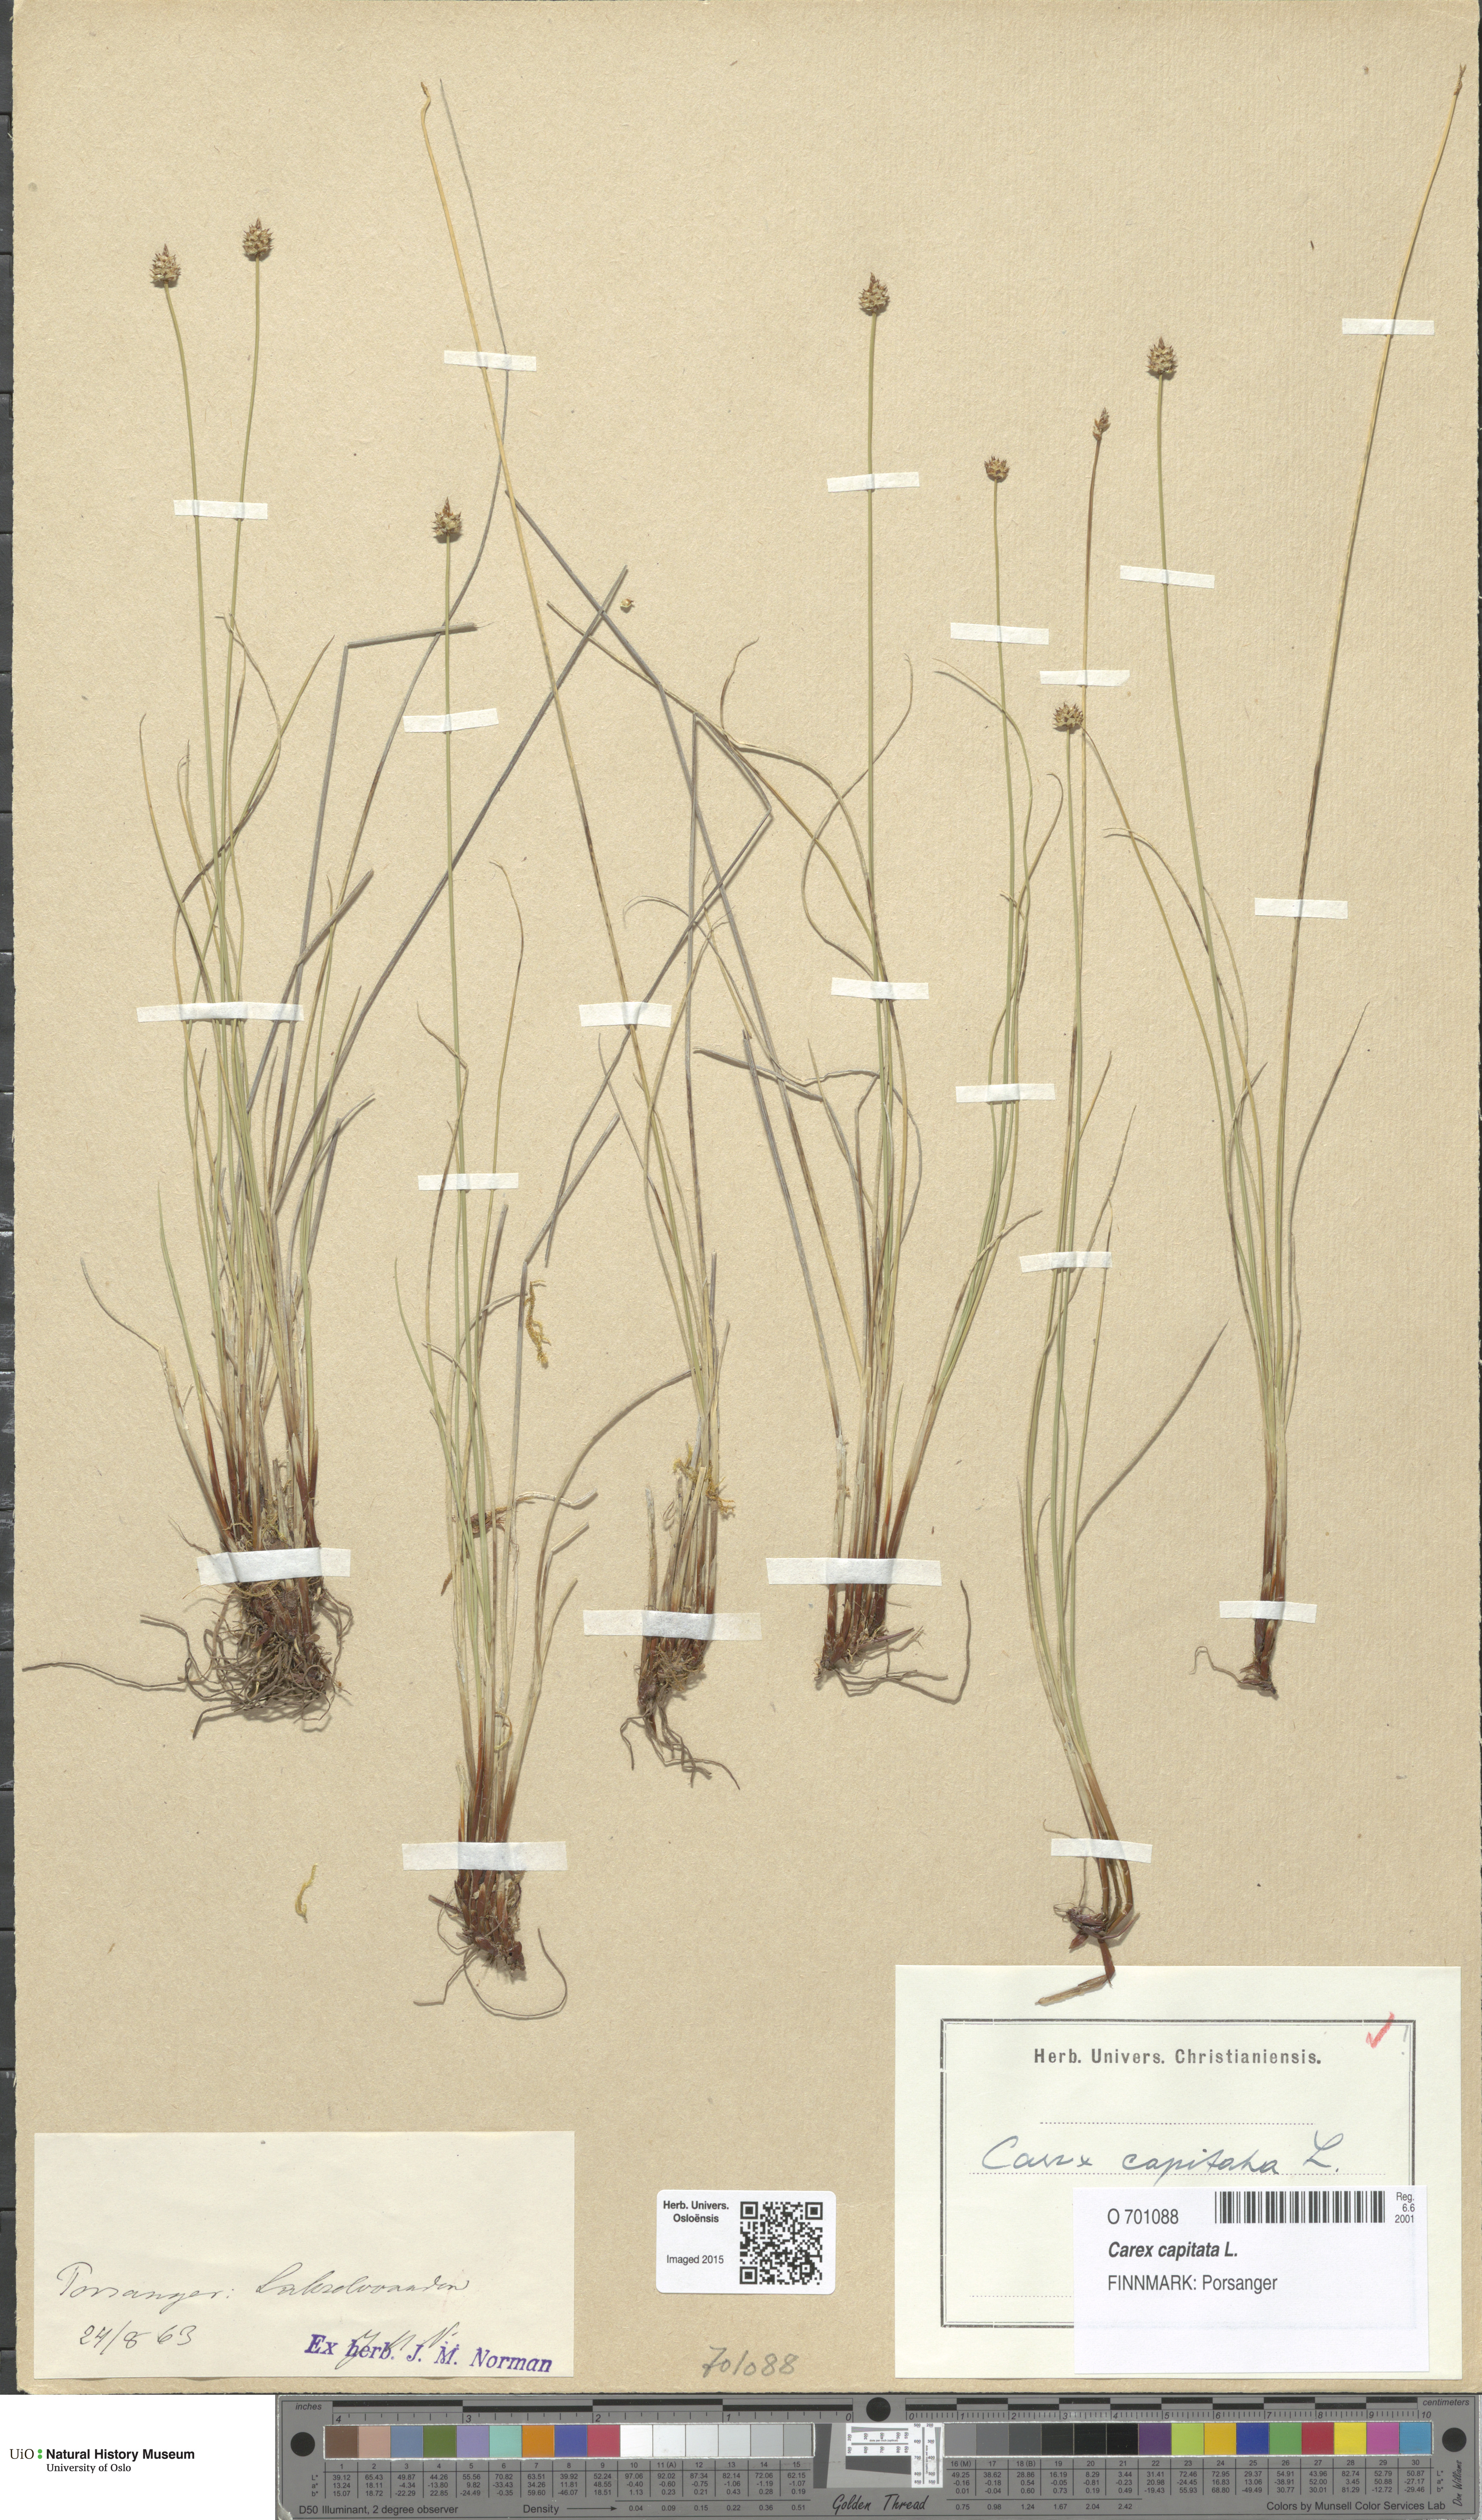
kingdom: Plantae
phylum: Tracheophyta
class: Liliopsida
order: Poales
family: Cyperaceae
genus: Carex
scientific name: Carex capitata
